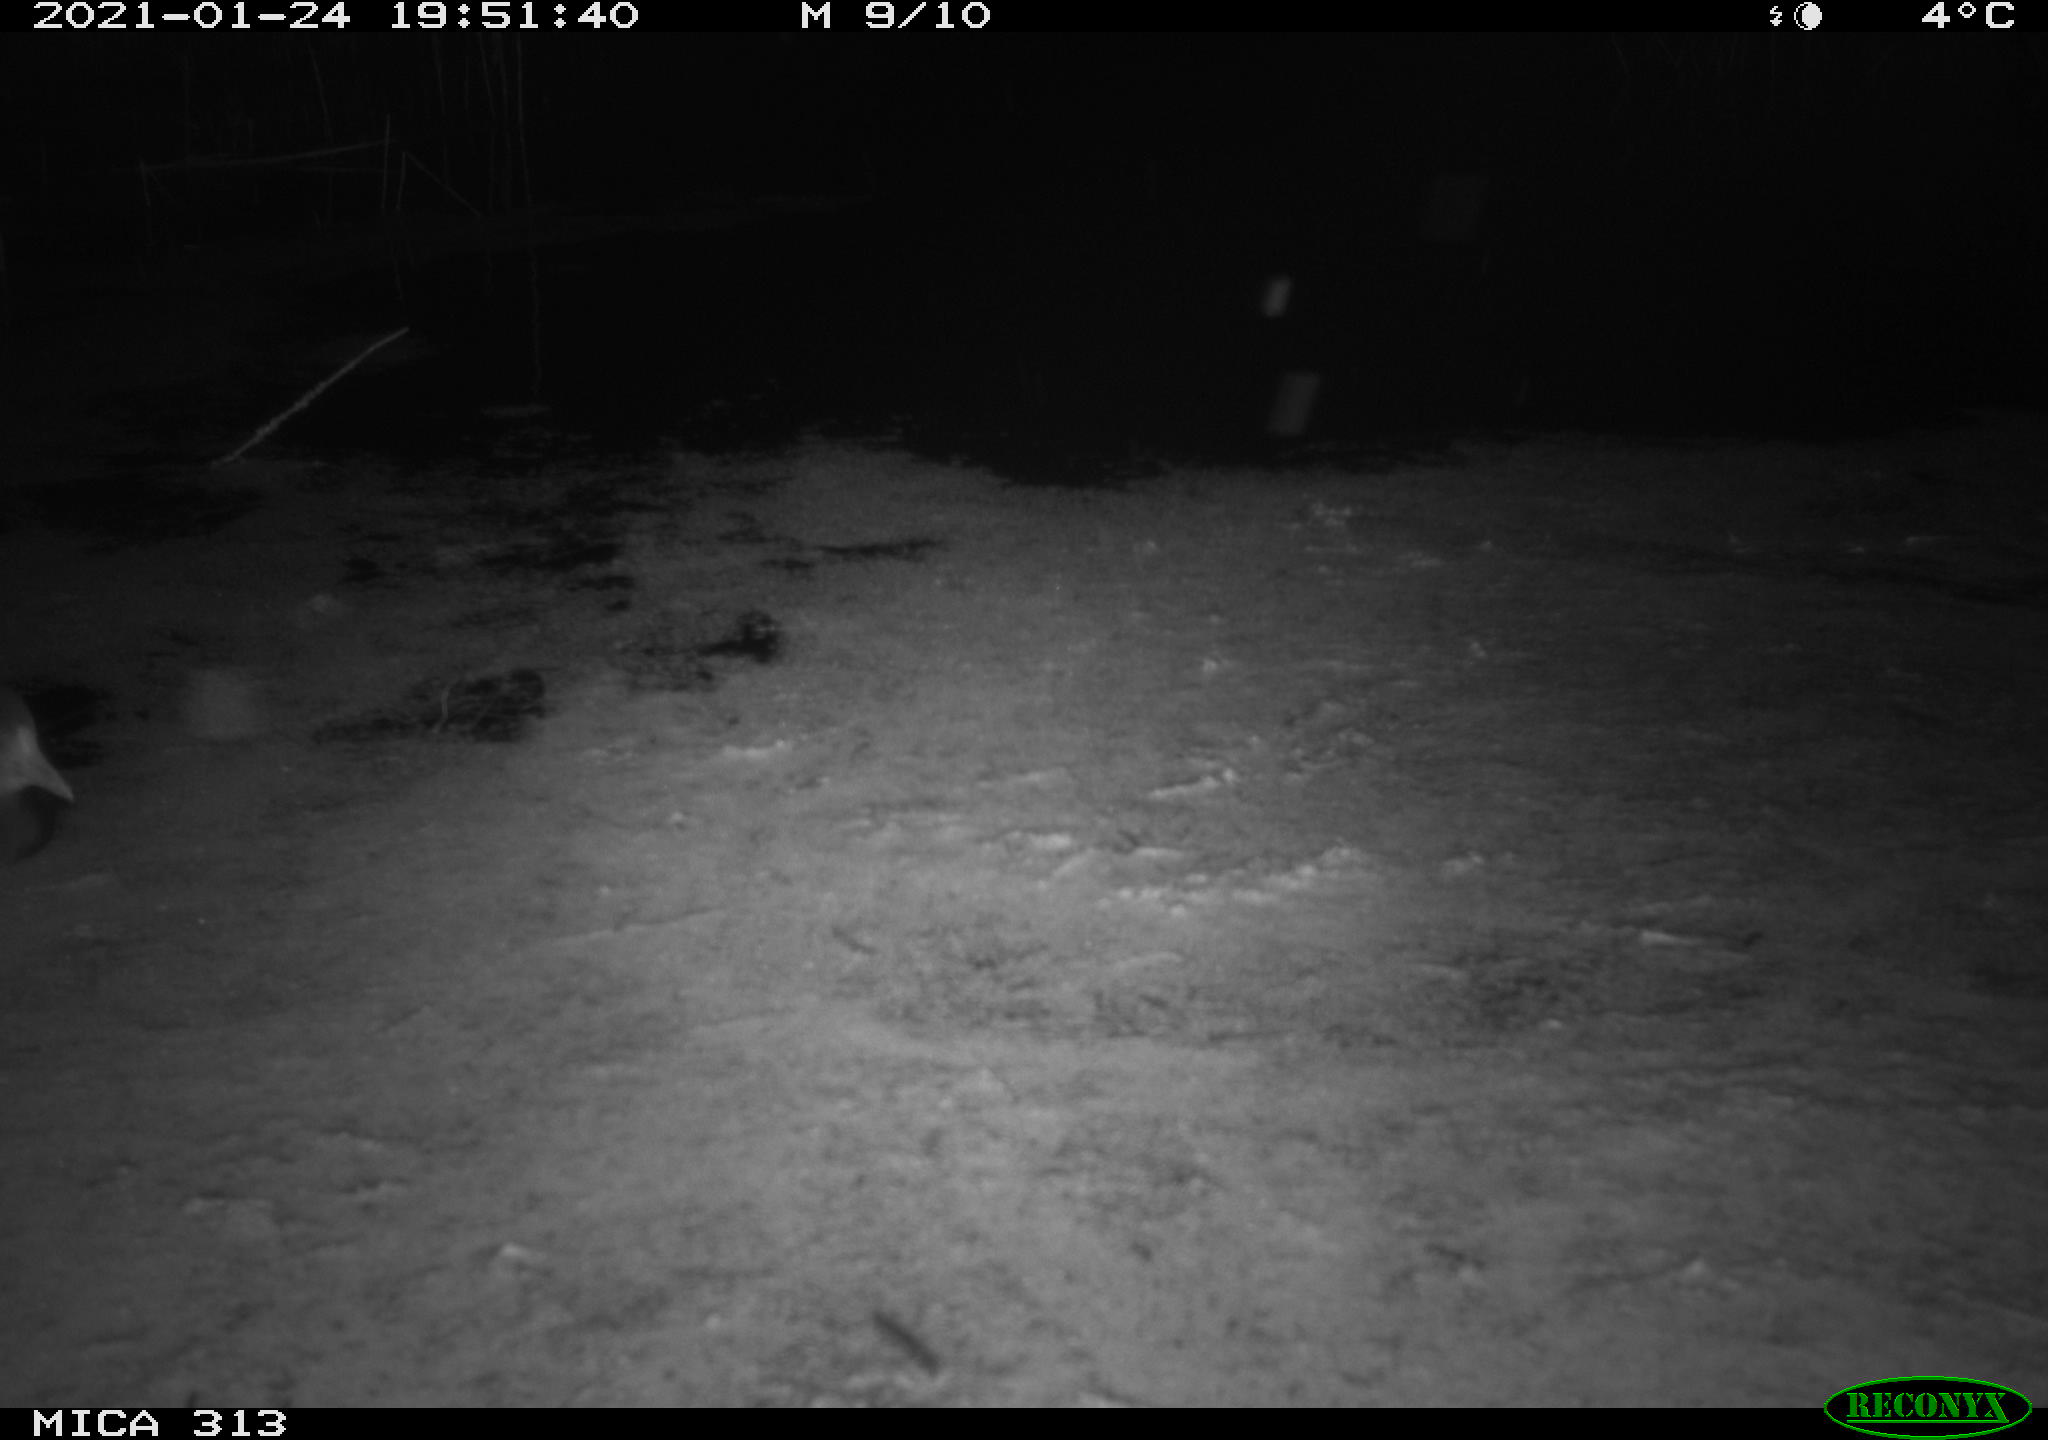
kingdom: Animalia
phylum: Chordata
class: Aves
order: Gruiformes
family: Rallidae
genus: Gallinula
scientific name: Gallinula chloropus
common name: Common moorhen
